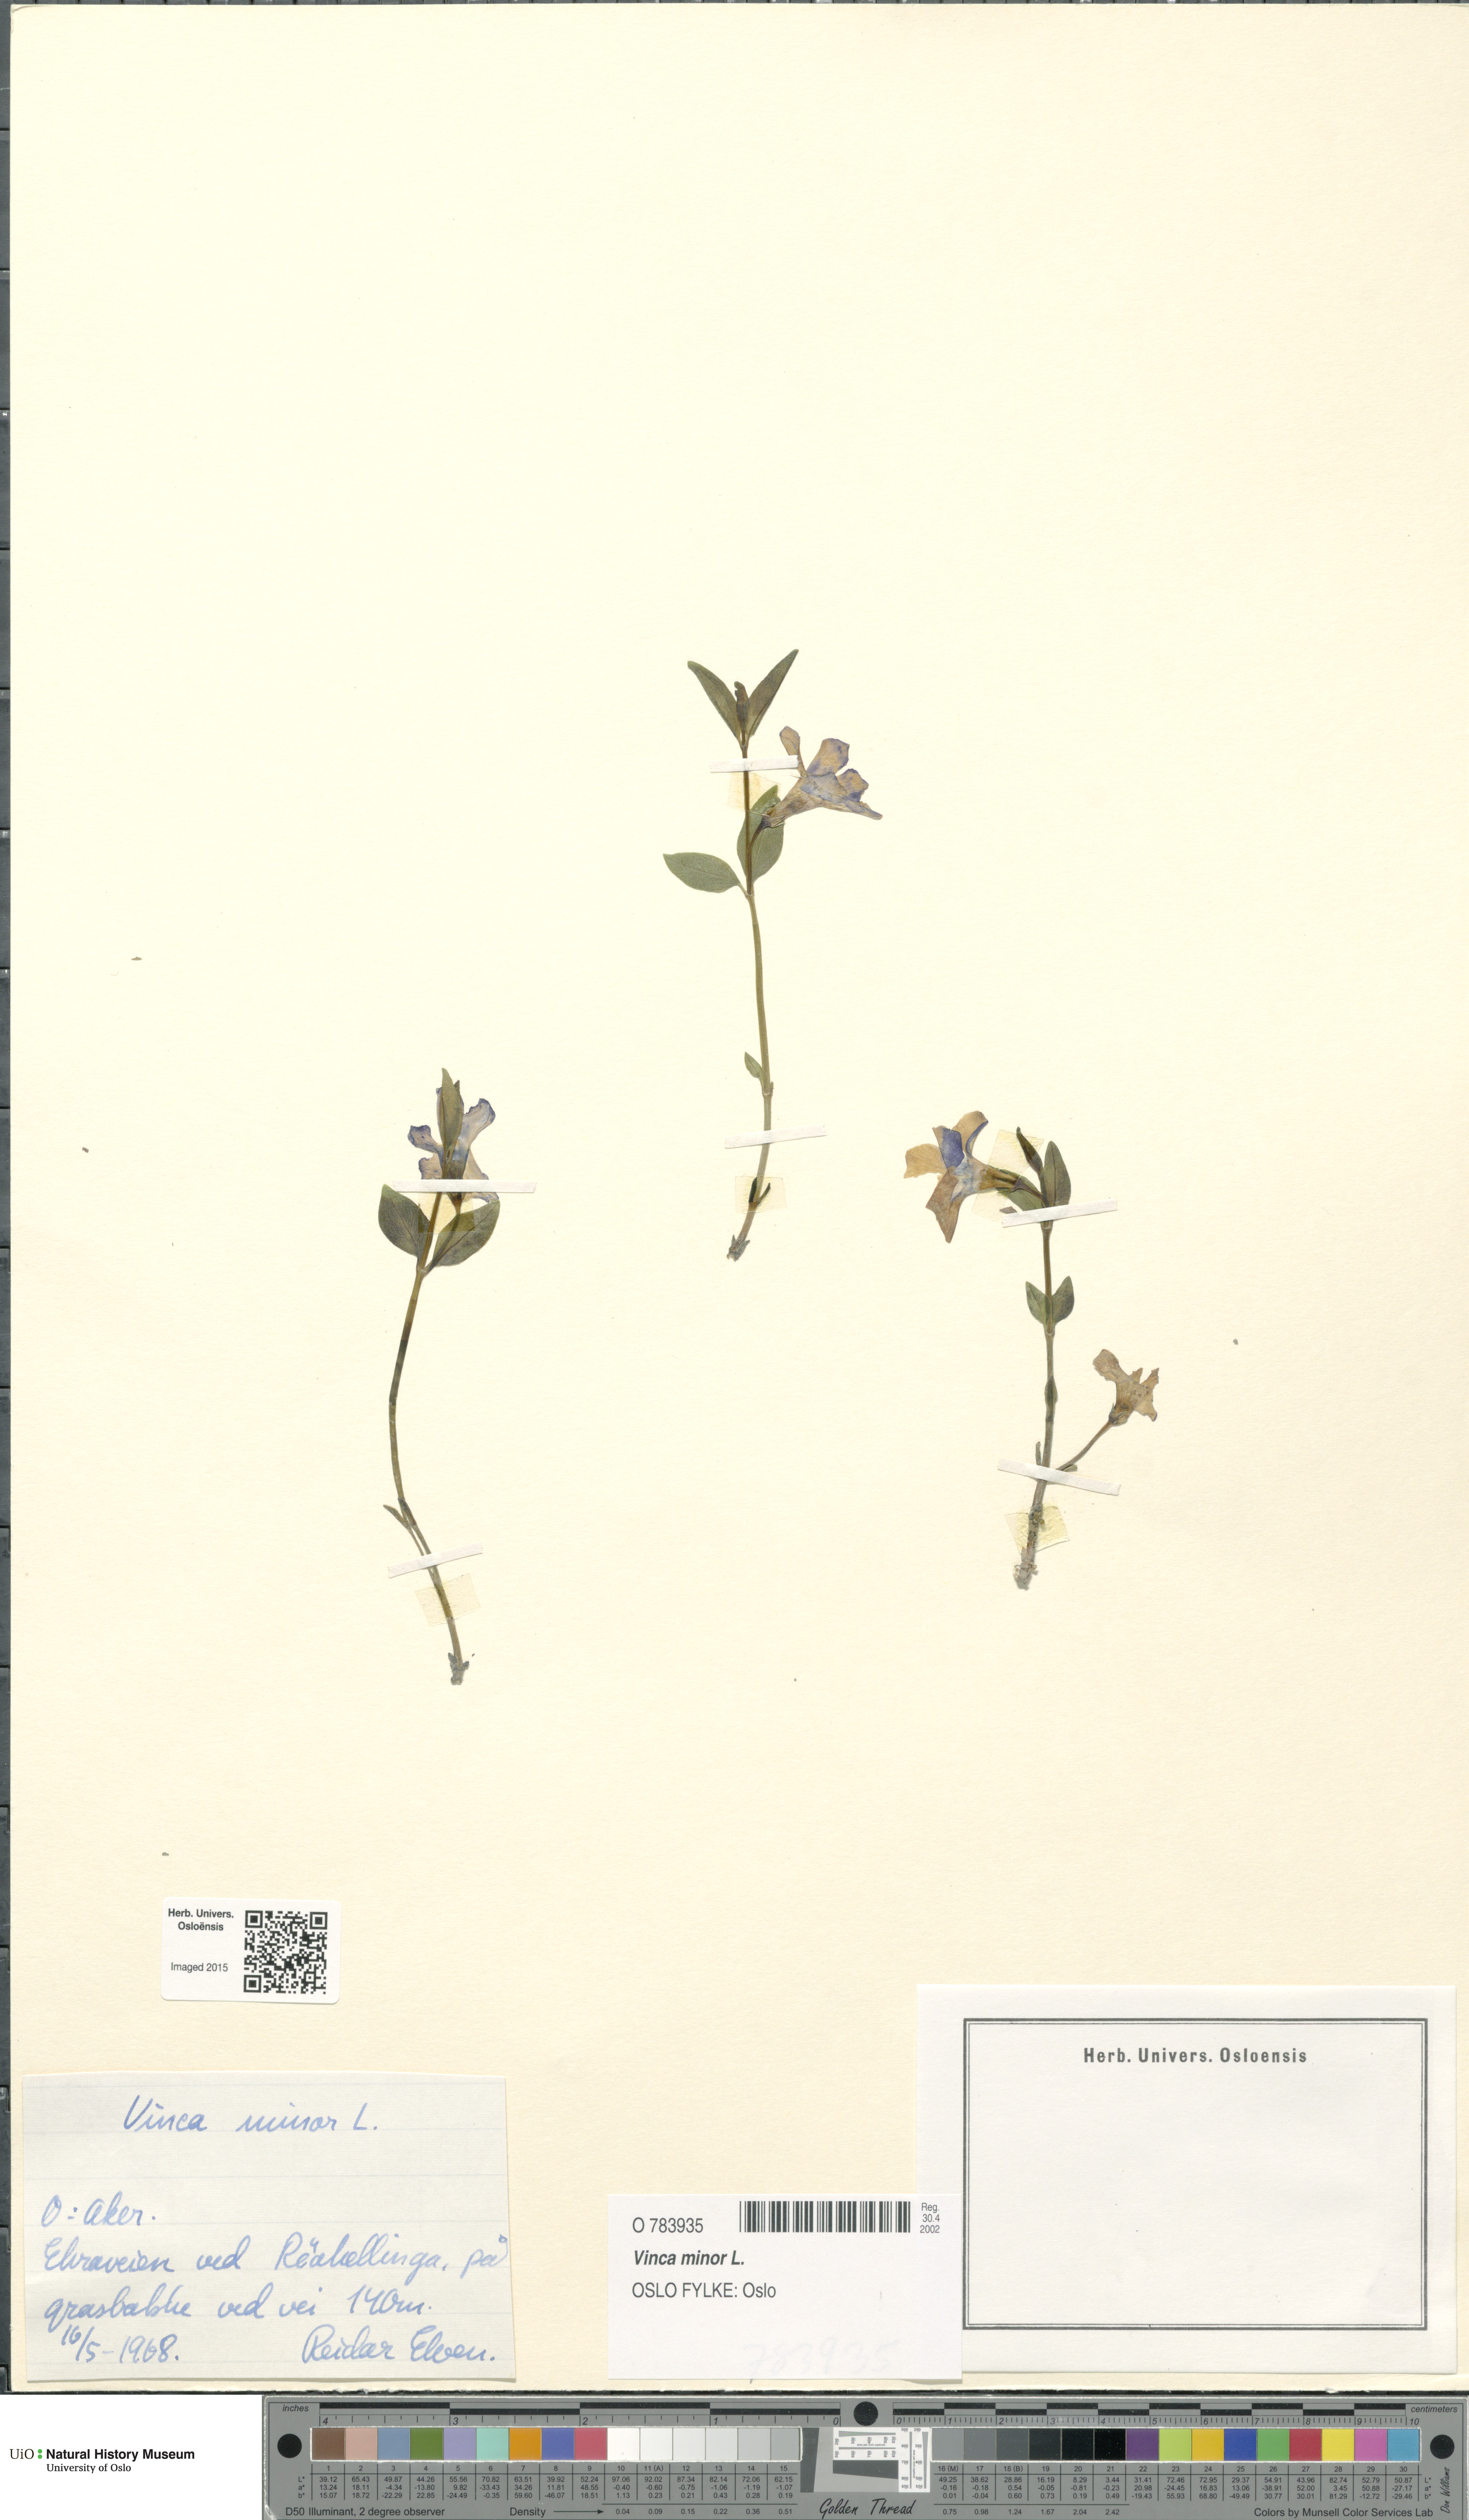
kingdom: Plantae
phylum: Tracheophyta
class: Magnoliopsida
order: Gentianales
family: Apocynaceae
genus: Vinca
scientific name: Vinca minor
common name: Lesser periwinkle
